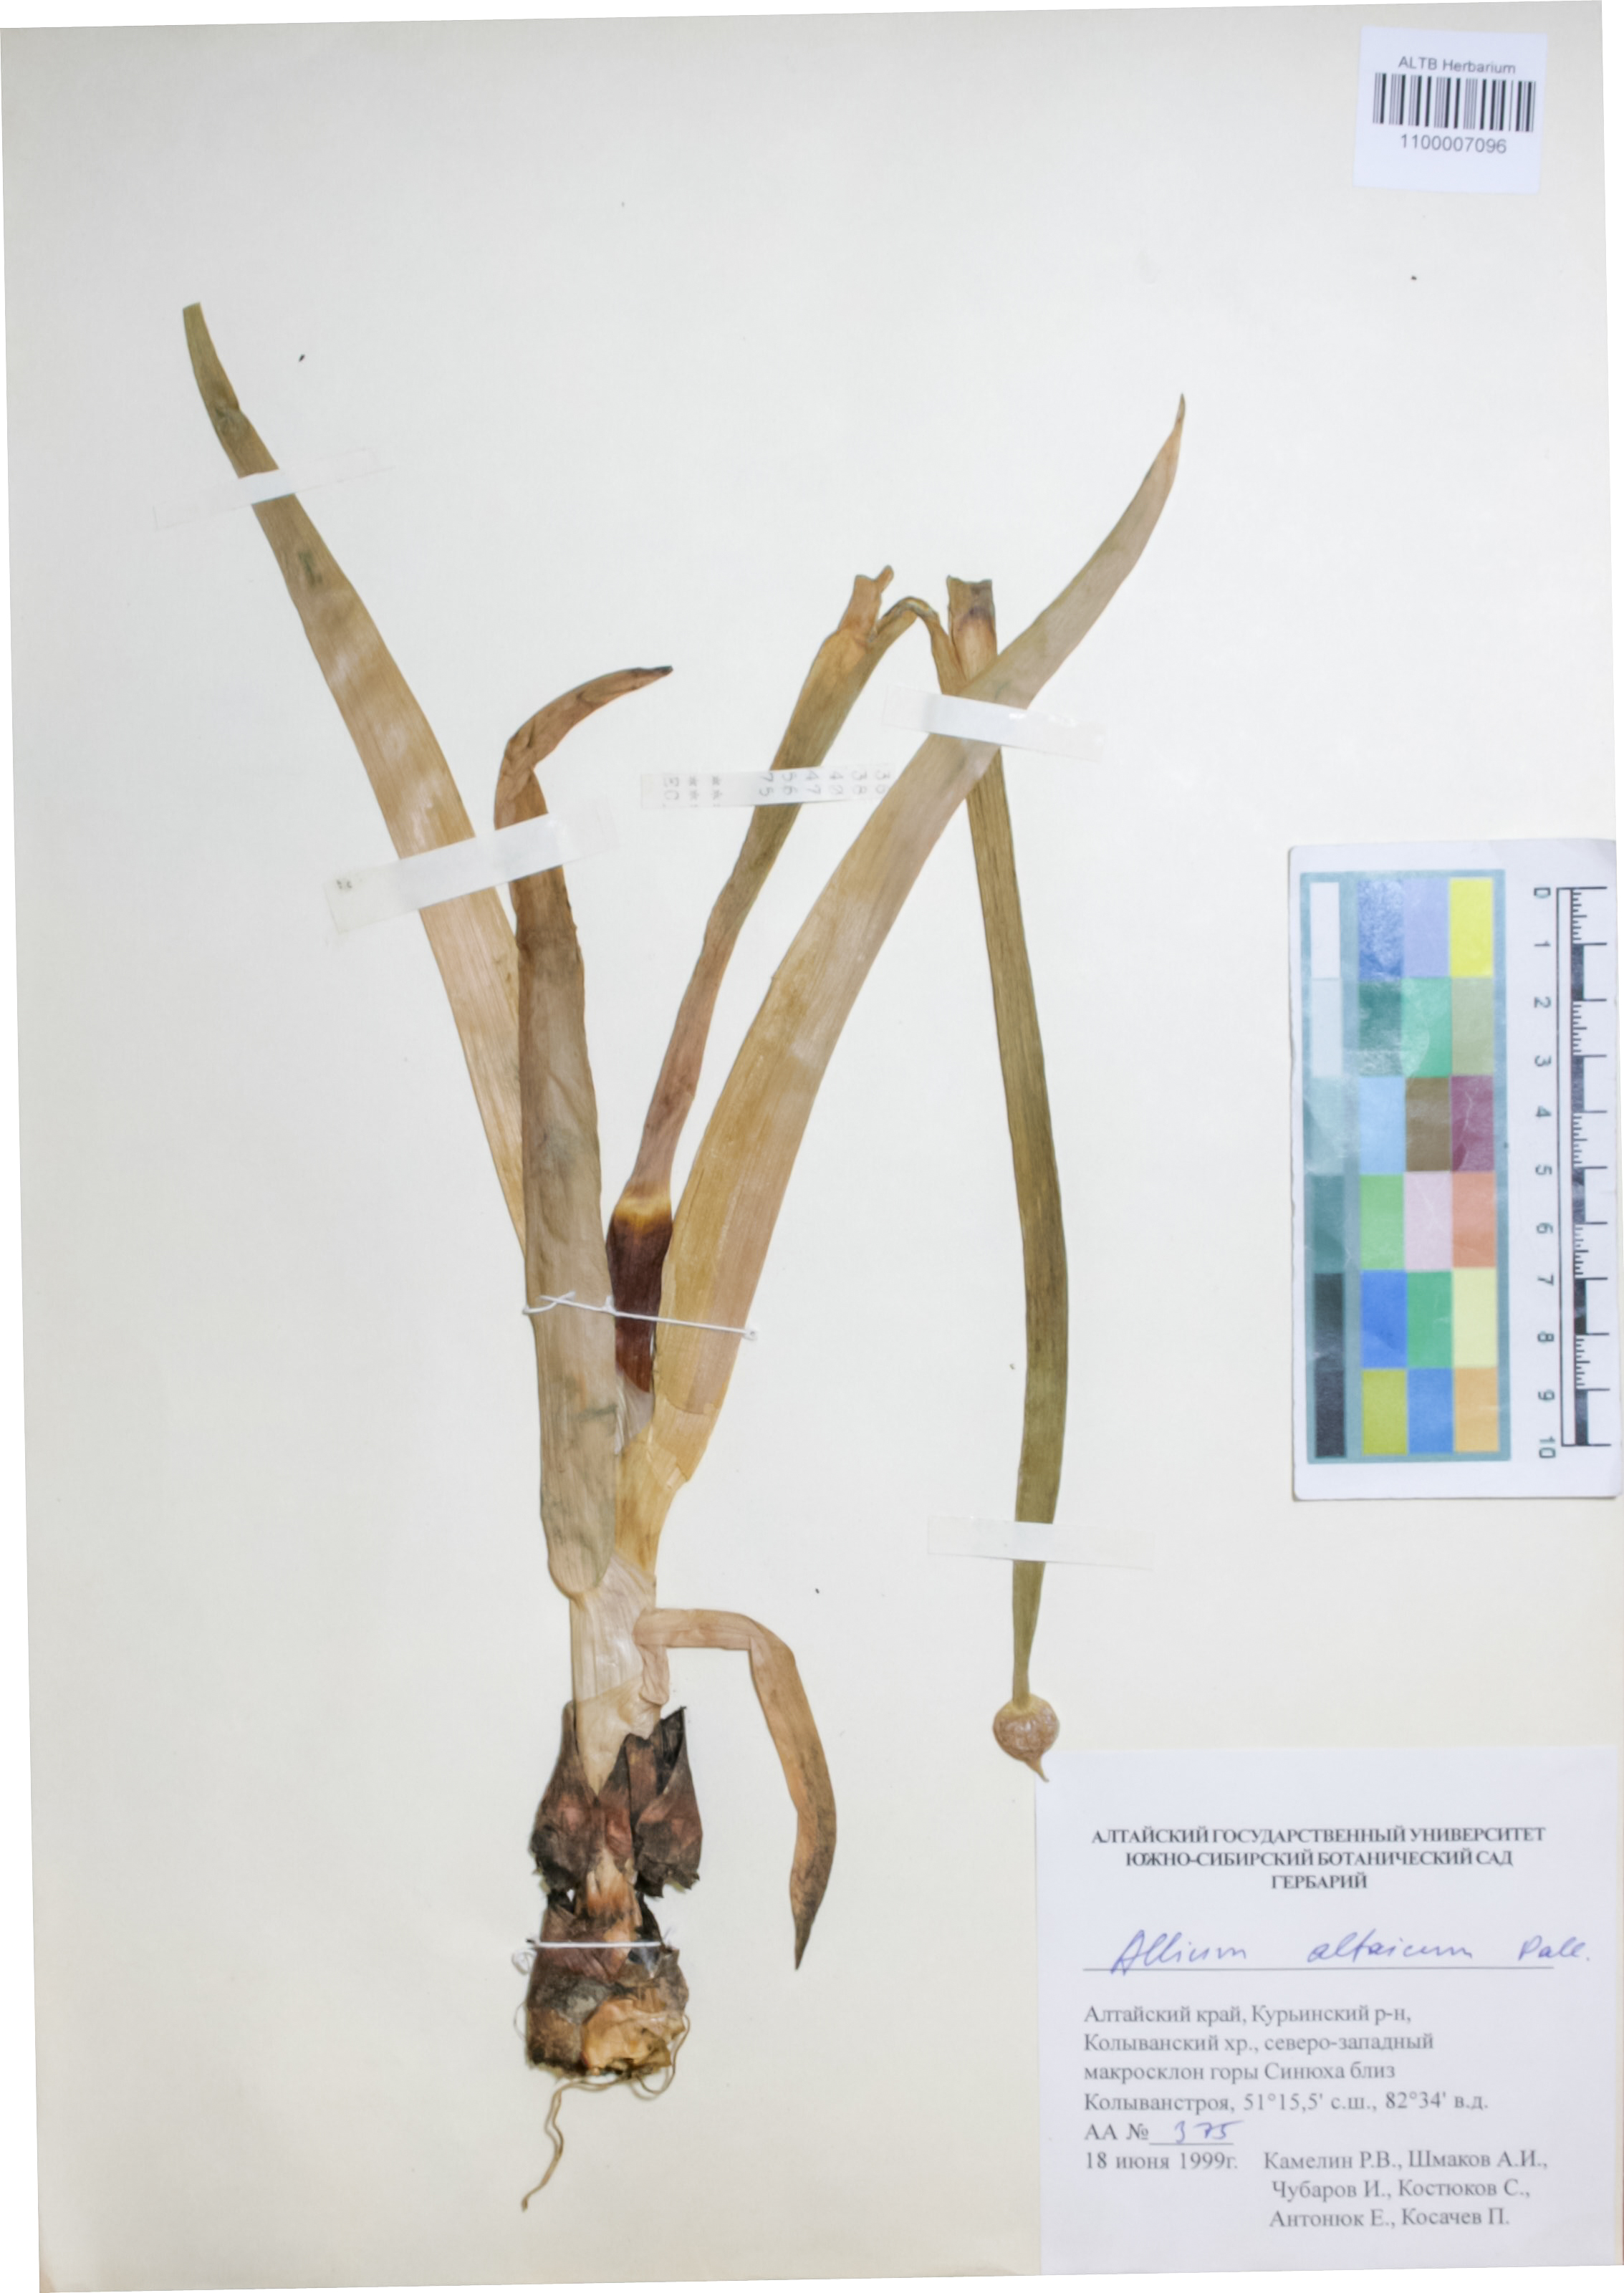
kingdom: Plantae
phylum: Tracheophyta
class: Liliopsida
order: Asparagales
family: Amaryllidaceae
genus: Allium
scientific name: Allium altaicum
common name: Altai onion
